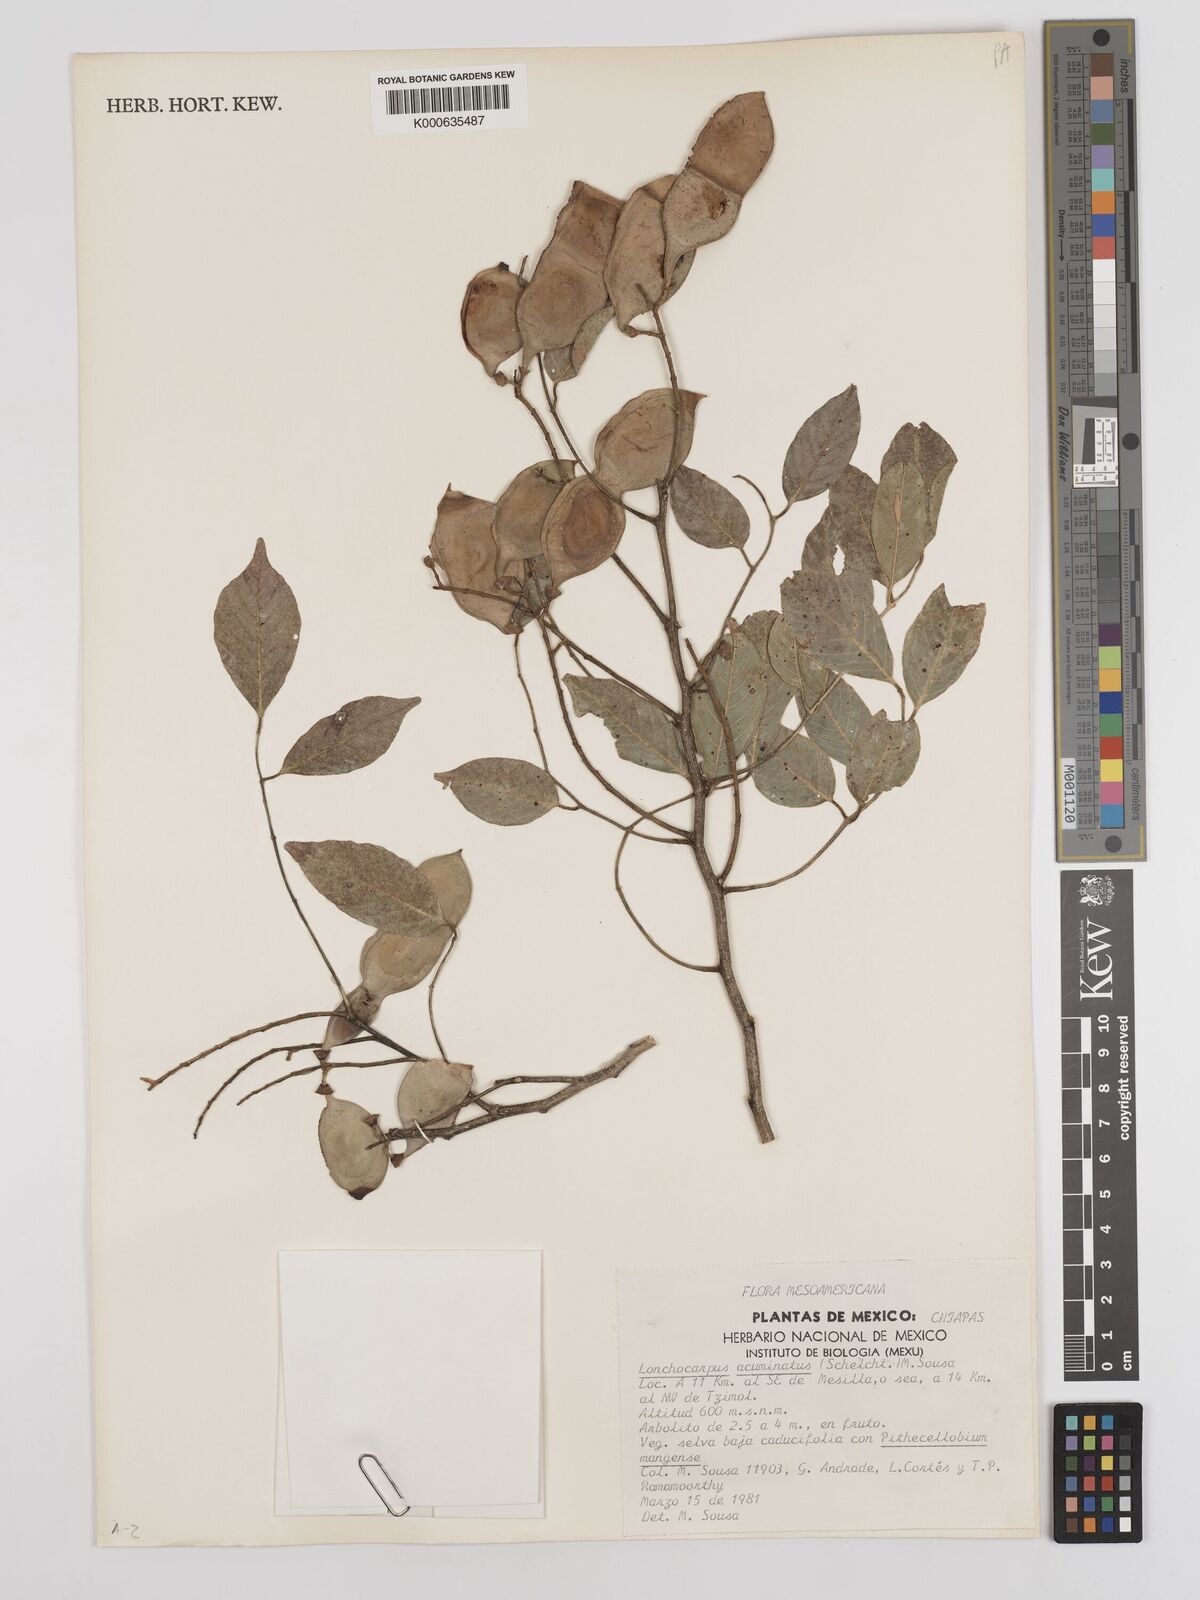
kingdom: Plantae
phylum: Tracheophyta
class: Magnoliopsida
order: Fabales
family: Fabaceae
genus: Lonchocarpus
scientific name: Lonchocarpus acuminatus
